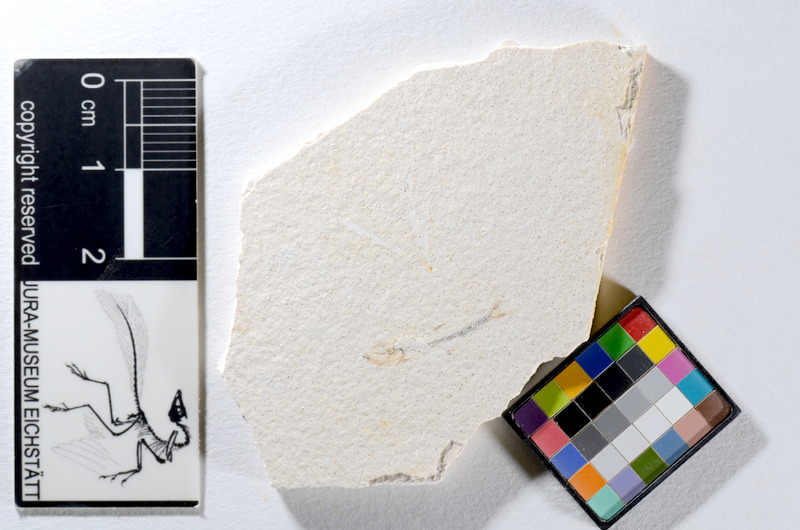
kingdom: Animalia
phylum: Chordata
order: Salmoniformes
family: Orthogonikleithridae
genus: Orthogonikleithrus
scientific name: Orthogonikleithrus hoelli
